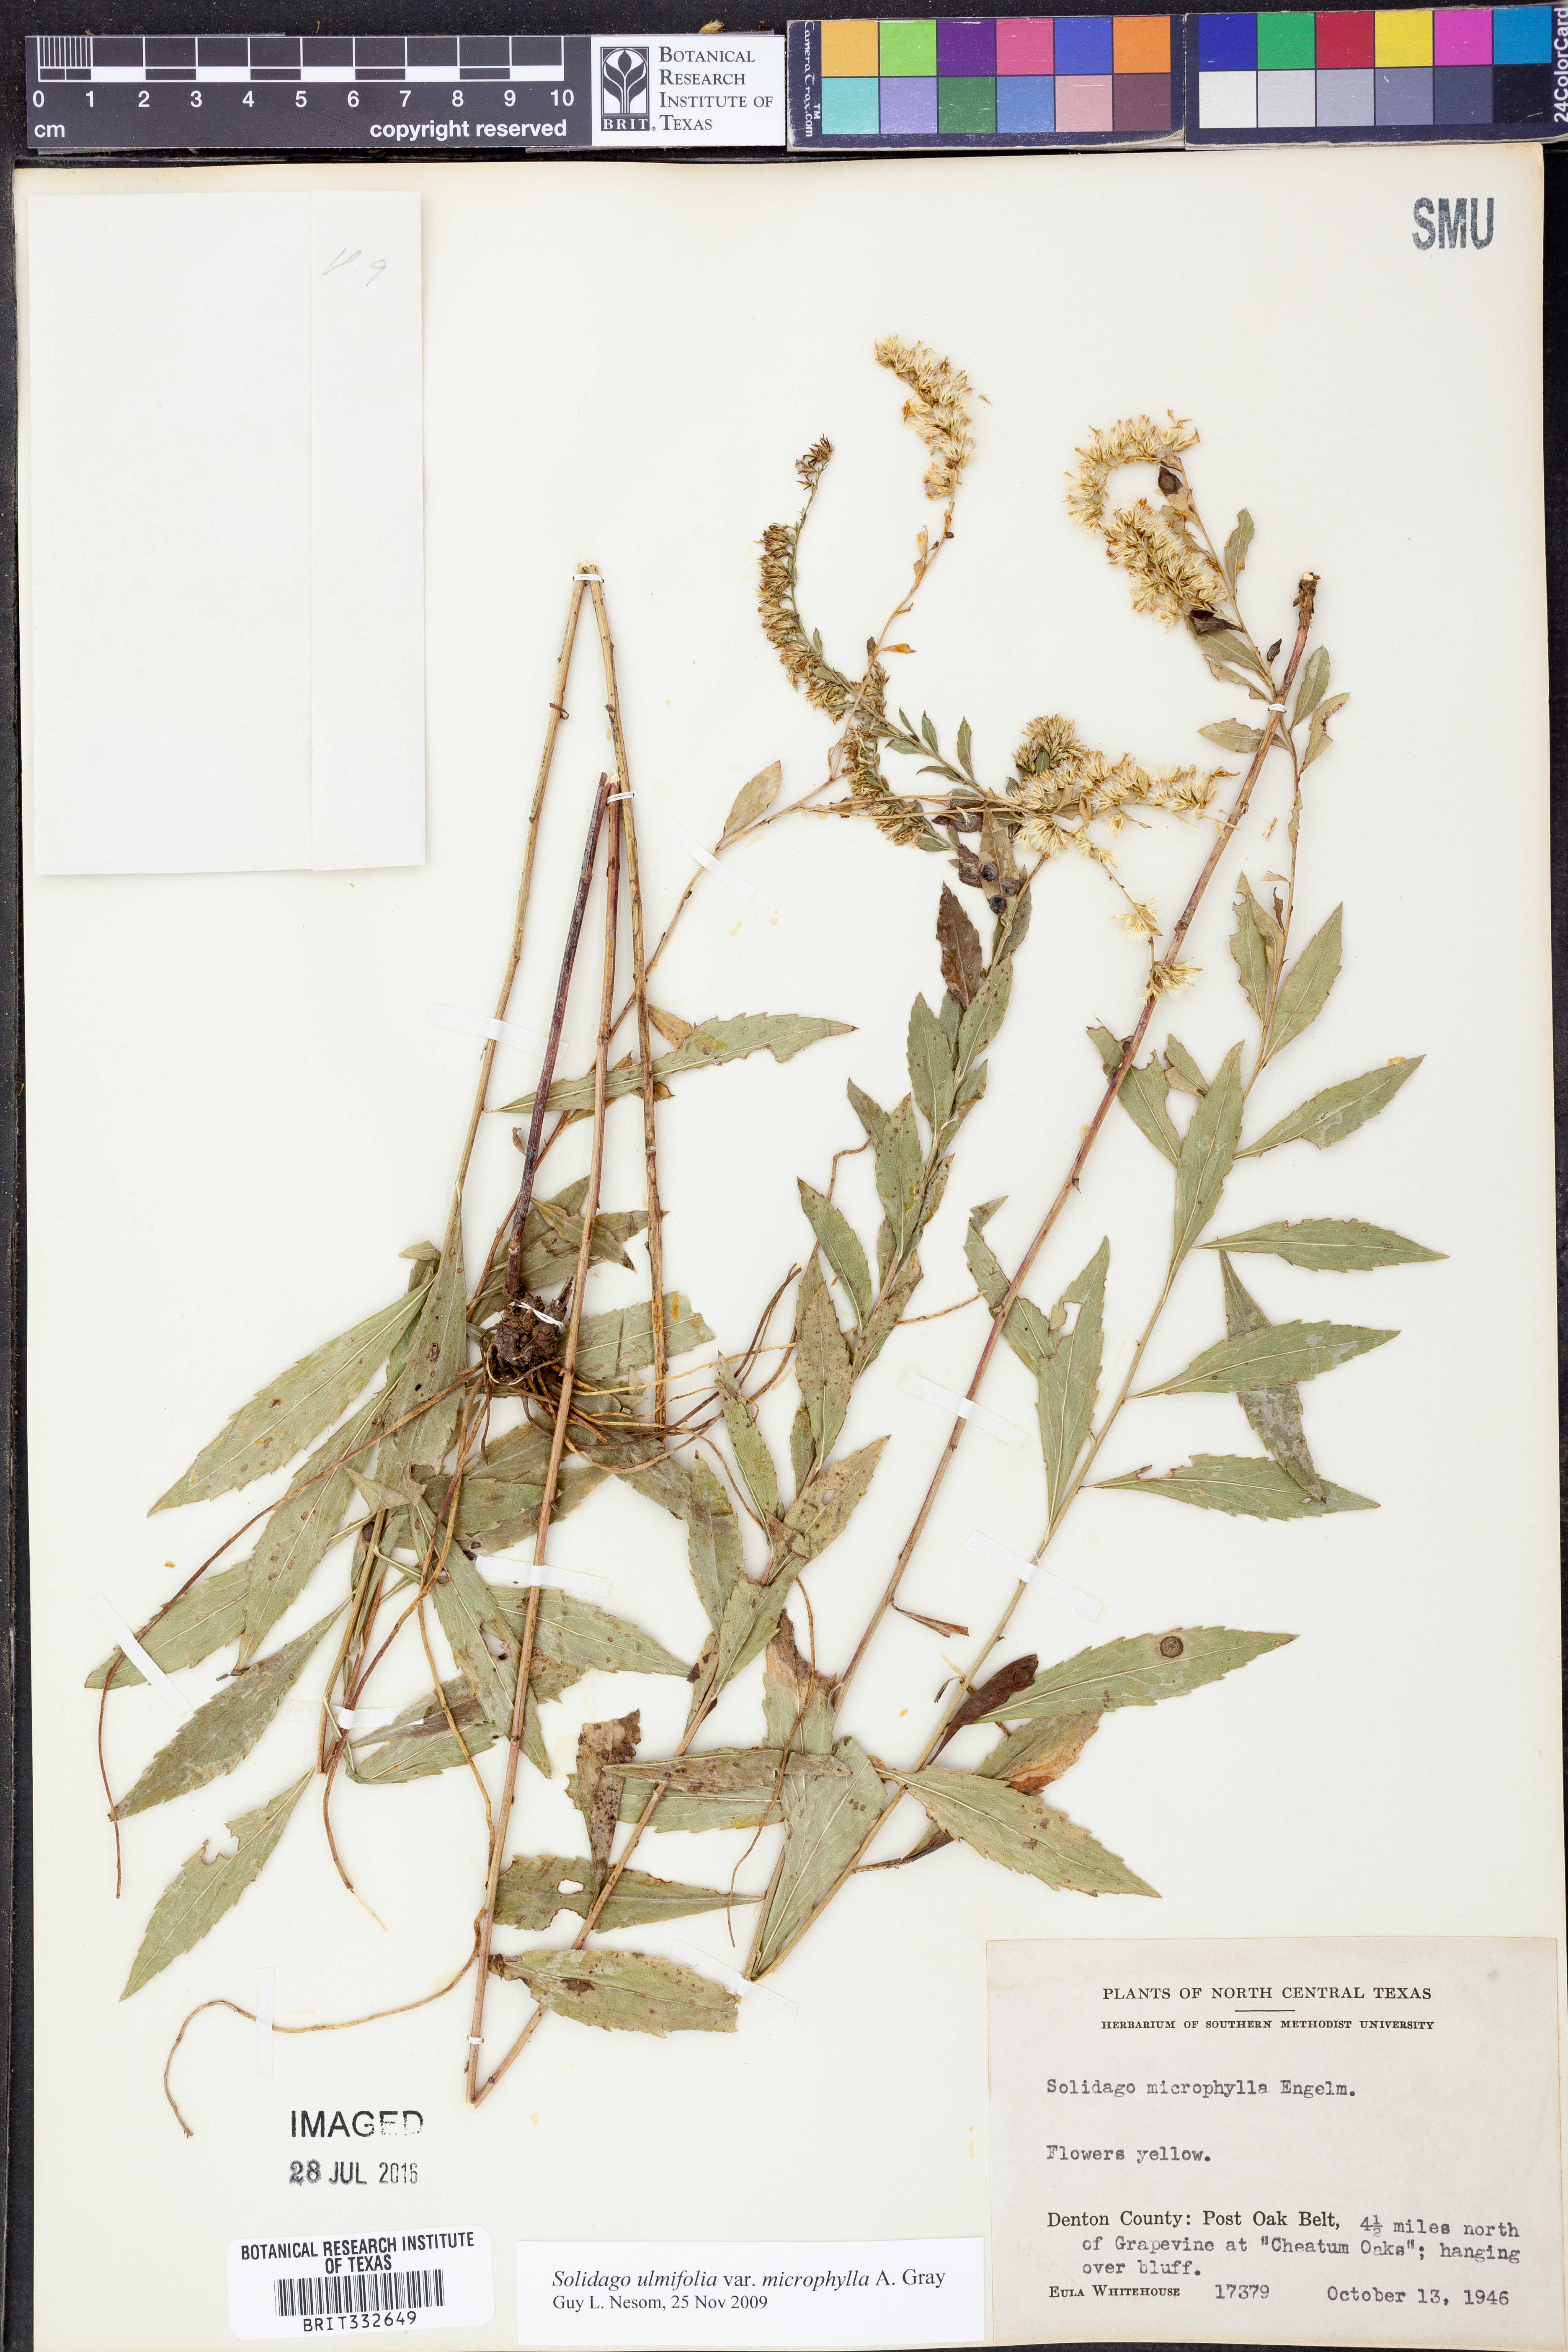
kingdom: Plantae
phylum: Tracheophyta
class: Magnoliopsida
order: Asterales
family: Asteraceae
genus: Solidago
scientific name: Solidago delicatula
